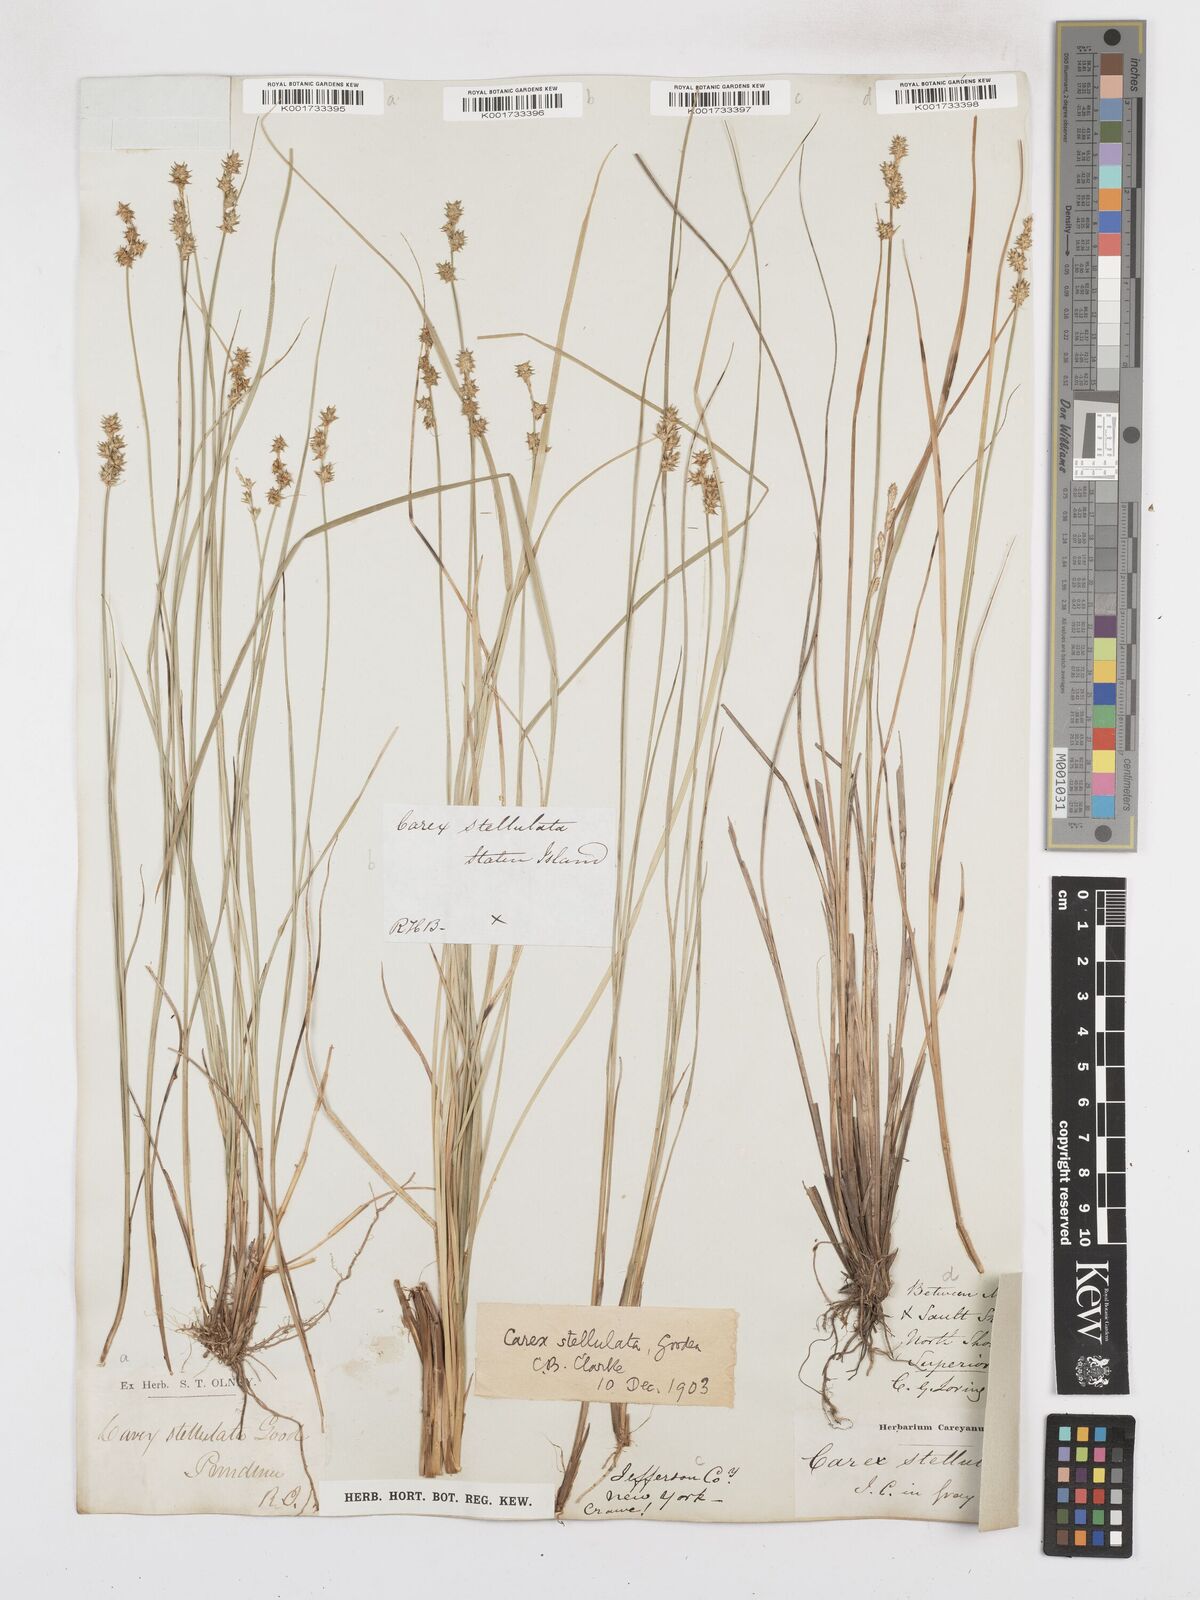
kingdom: Plantae
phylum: Tracheophyta
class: Liliopsida
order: Poales
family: Cyperaceae
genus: Carex
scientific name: Carex echinata
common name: Star sedge
